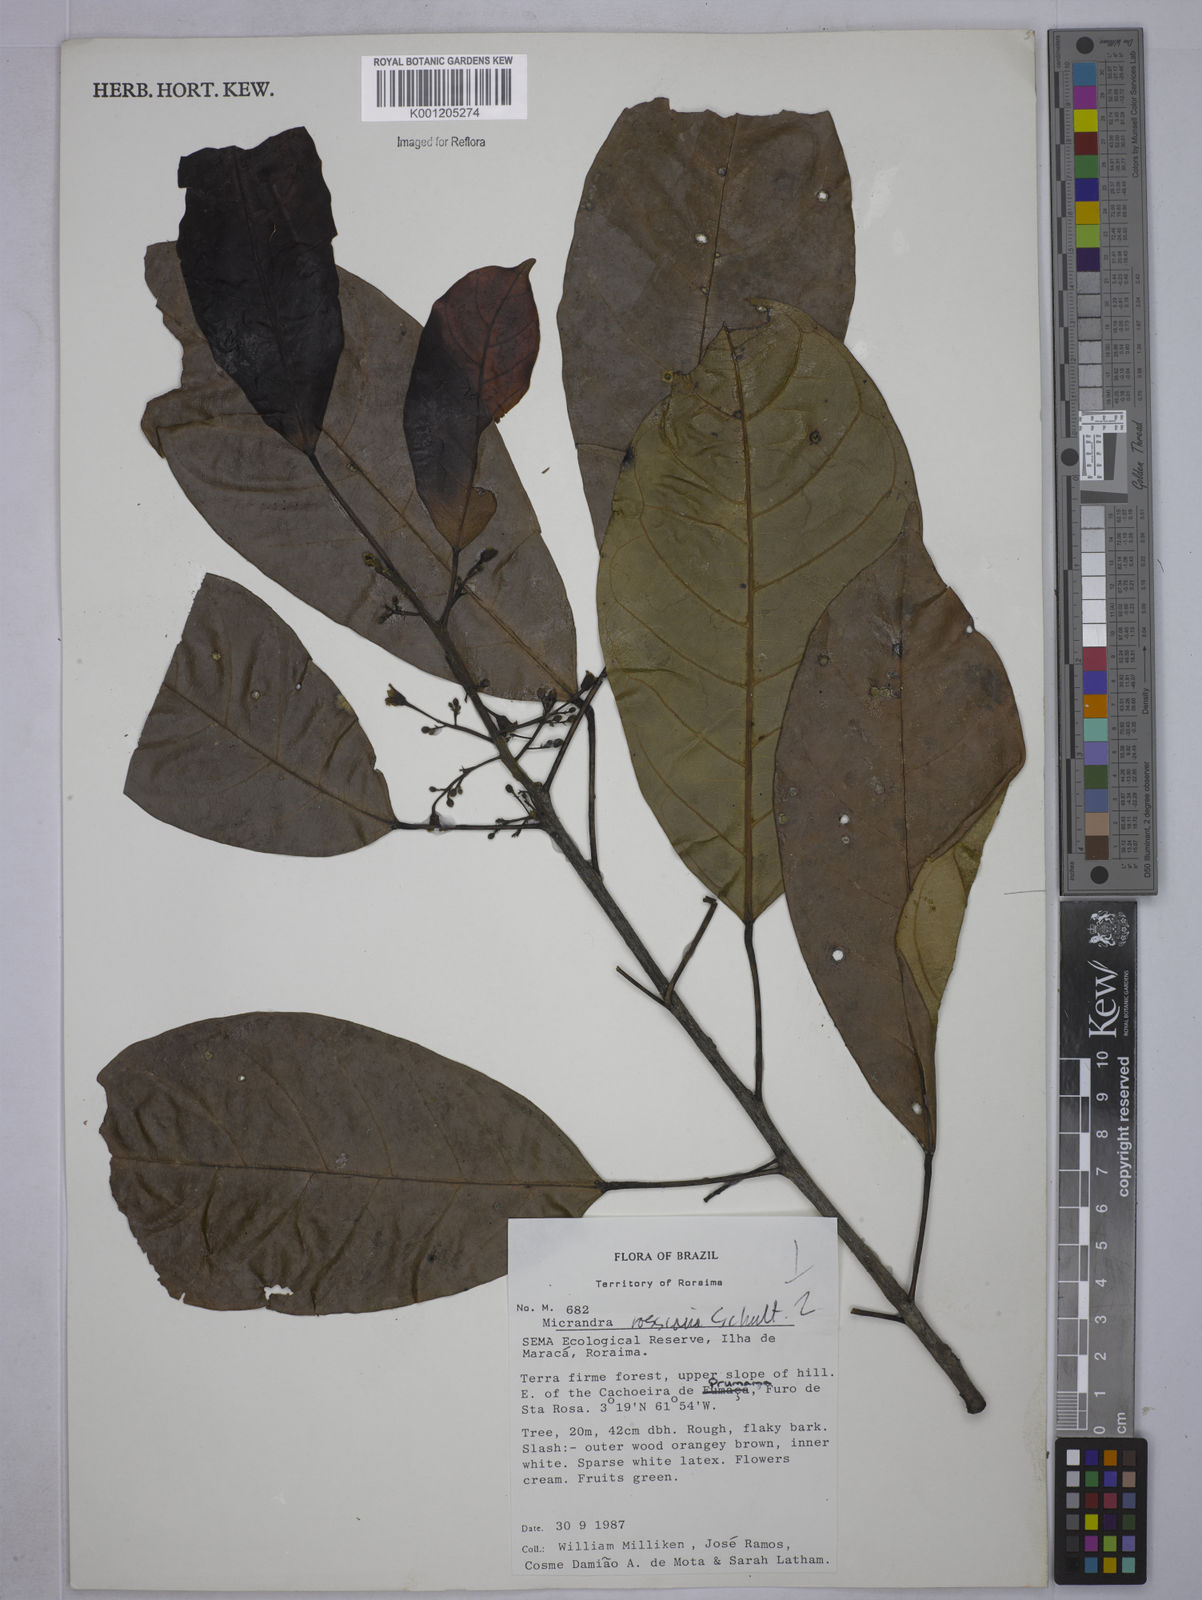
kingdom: Plantae
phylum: Tracheophyta
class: Magnoliopsida
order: Malpighiales
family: Euphorbiaceae
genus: Micrandra
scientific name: Micrandra rossiana
